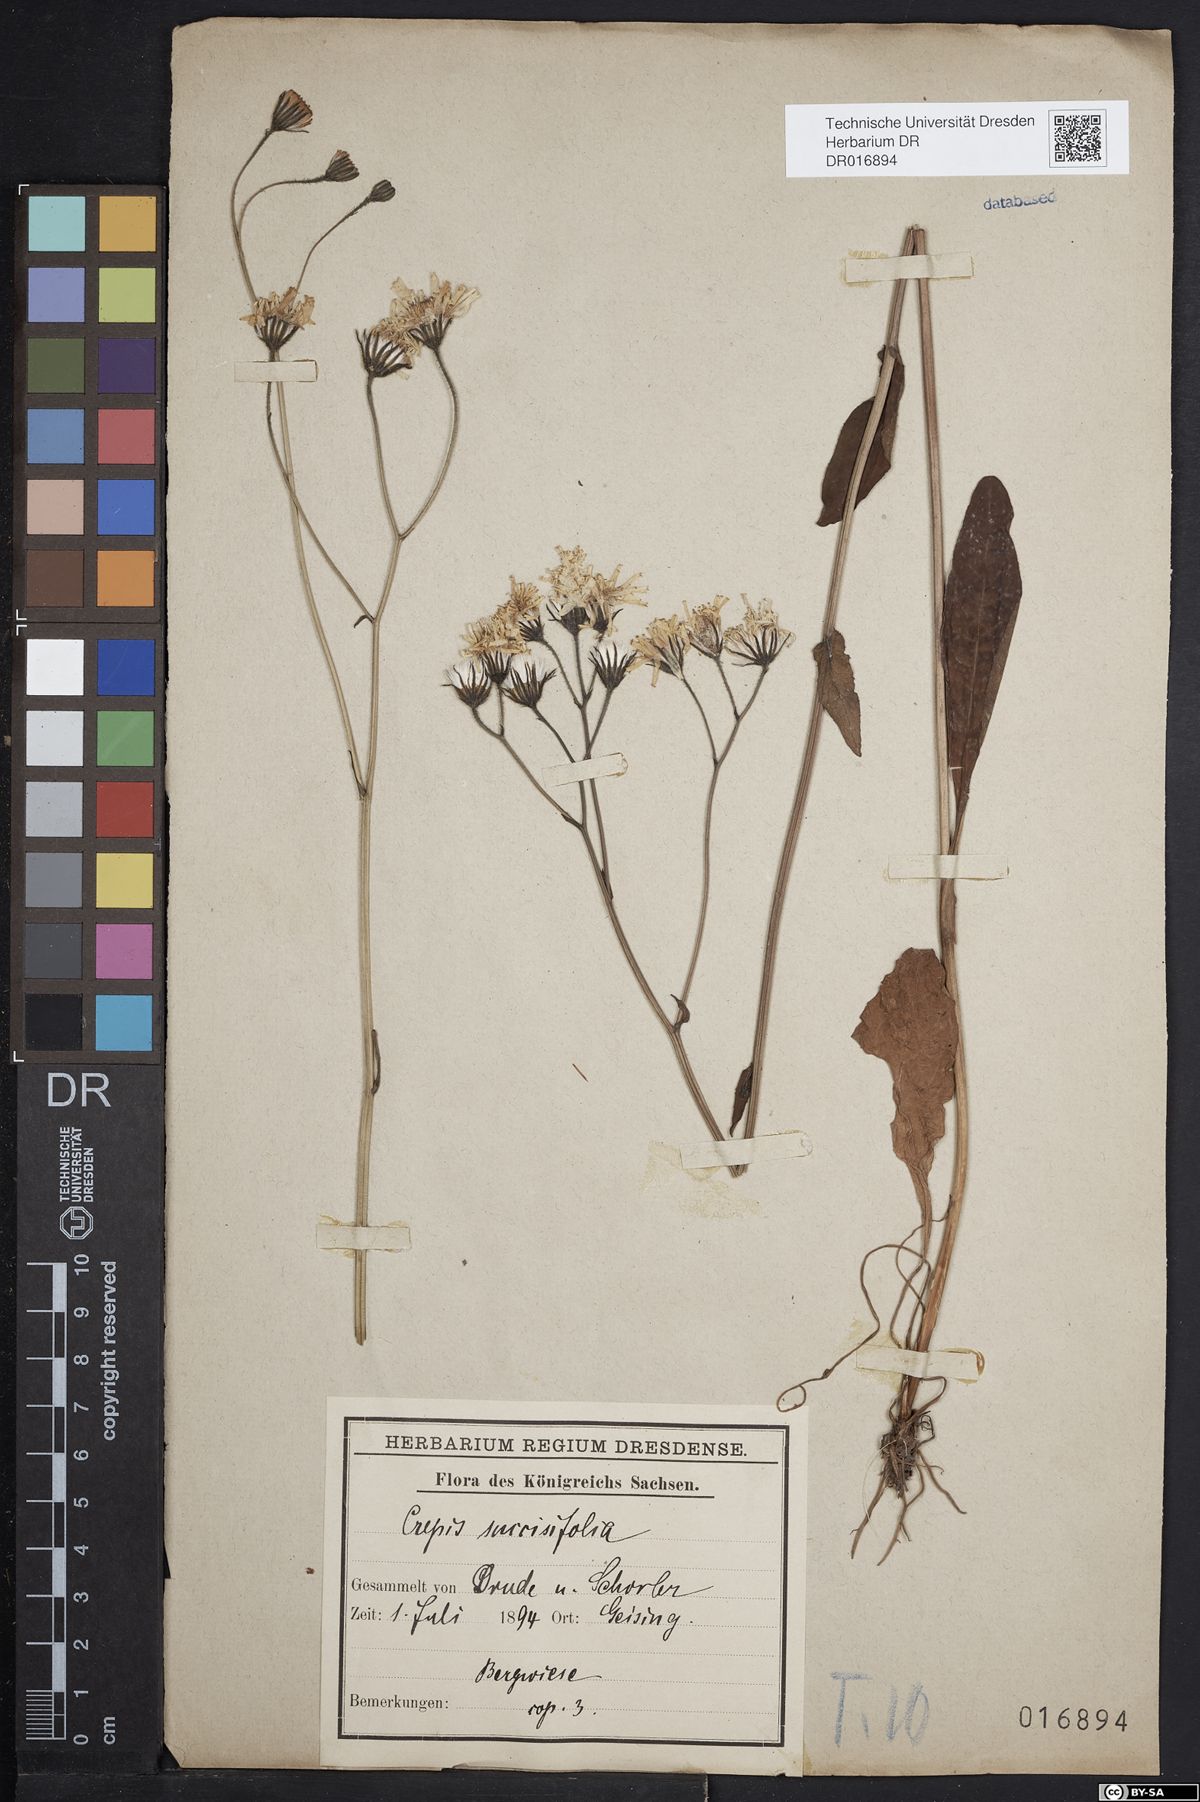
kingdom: Plantae
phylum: Tracheophyta
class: Magnoliopsida
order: Asterales
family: Asteraceae
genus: Crepis
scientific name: Crepis mollis
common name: Northern hawk's-beard
